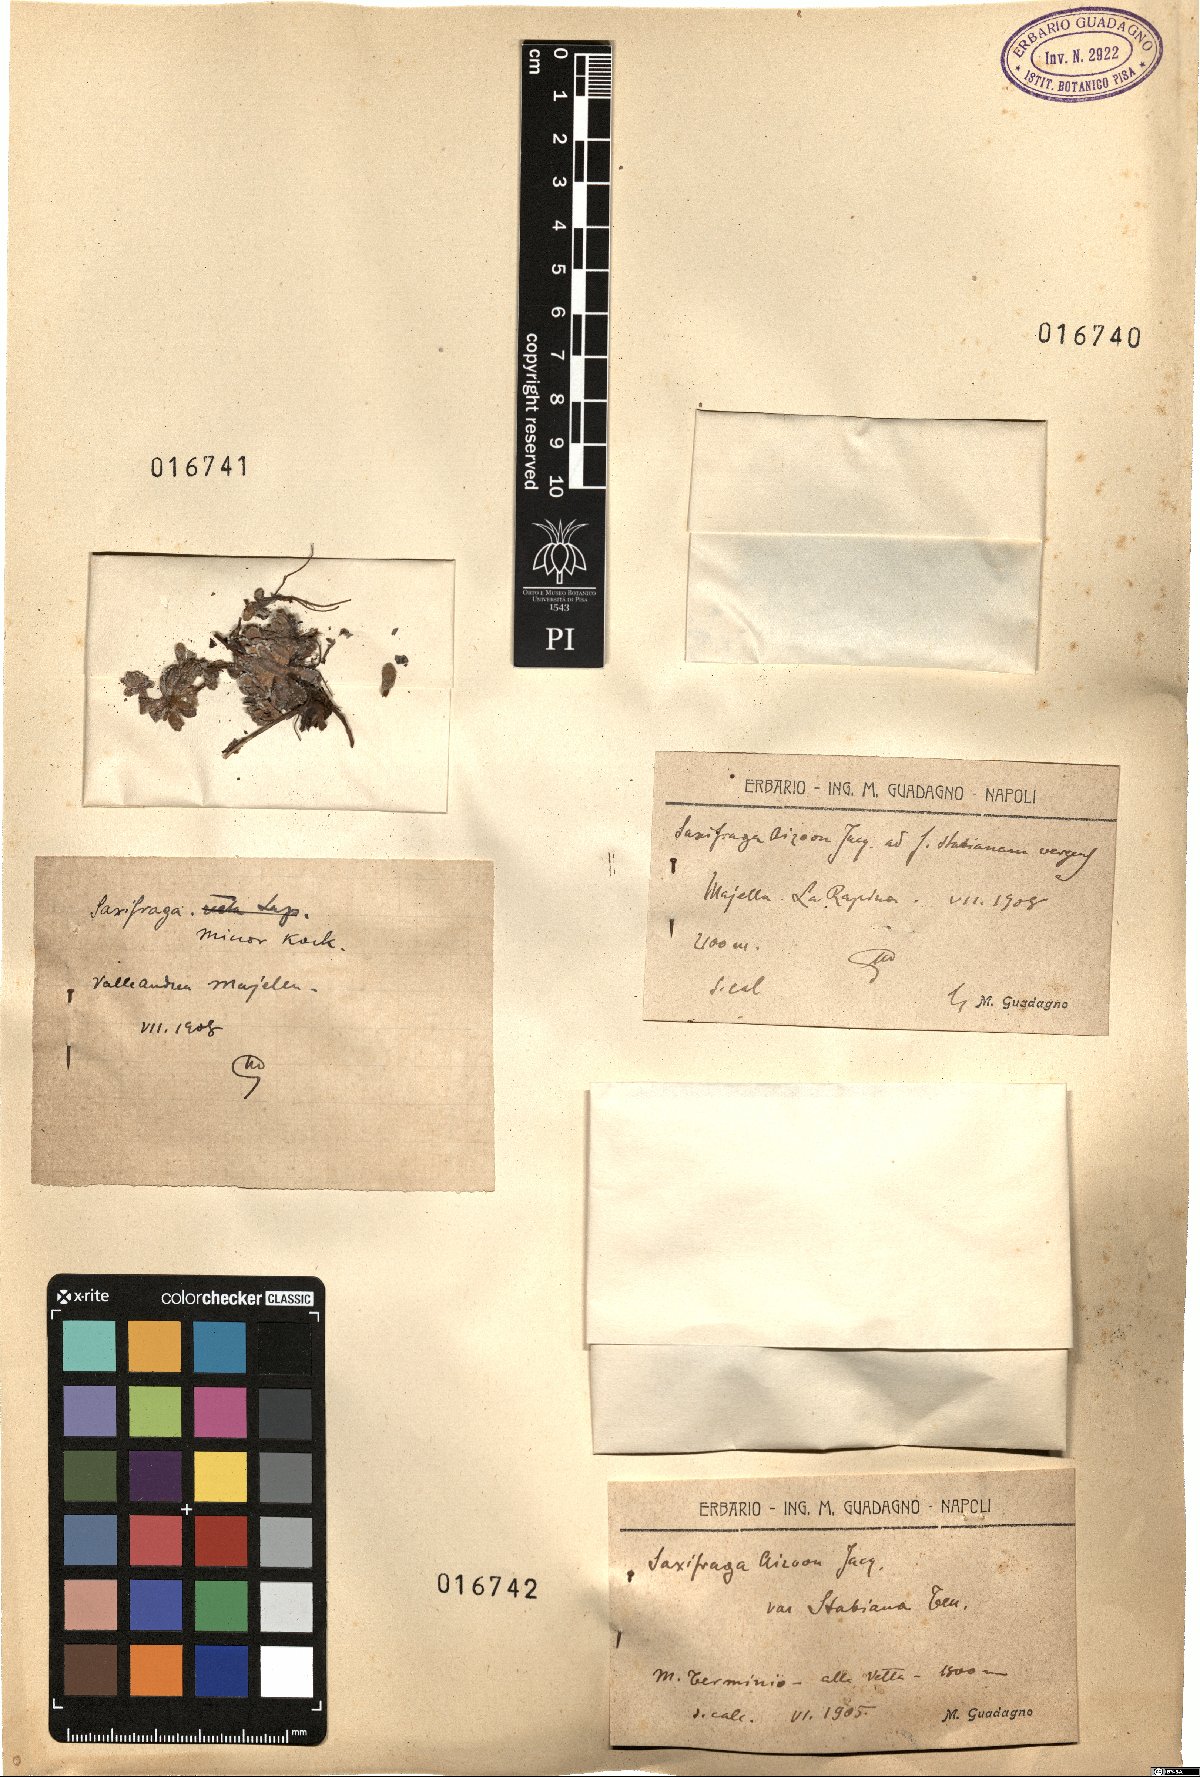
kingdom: Plantae
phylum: Tracheophyta
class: Magnoliopsida
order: Saxifragales
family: Saxifragaceae
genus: Saxifraga
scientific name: Saxifraga minor
